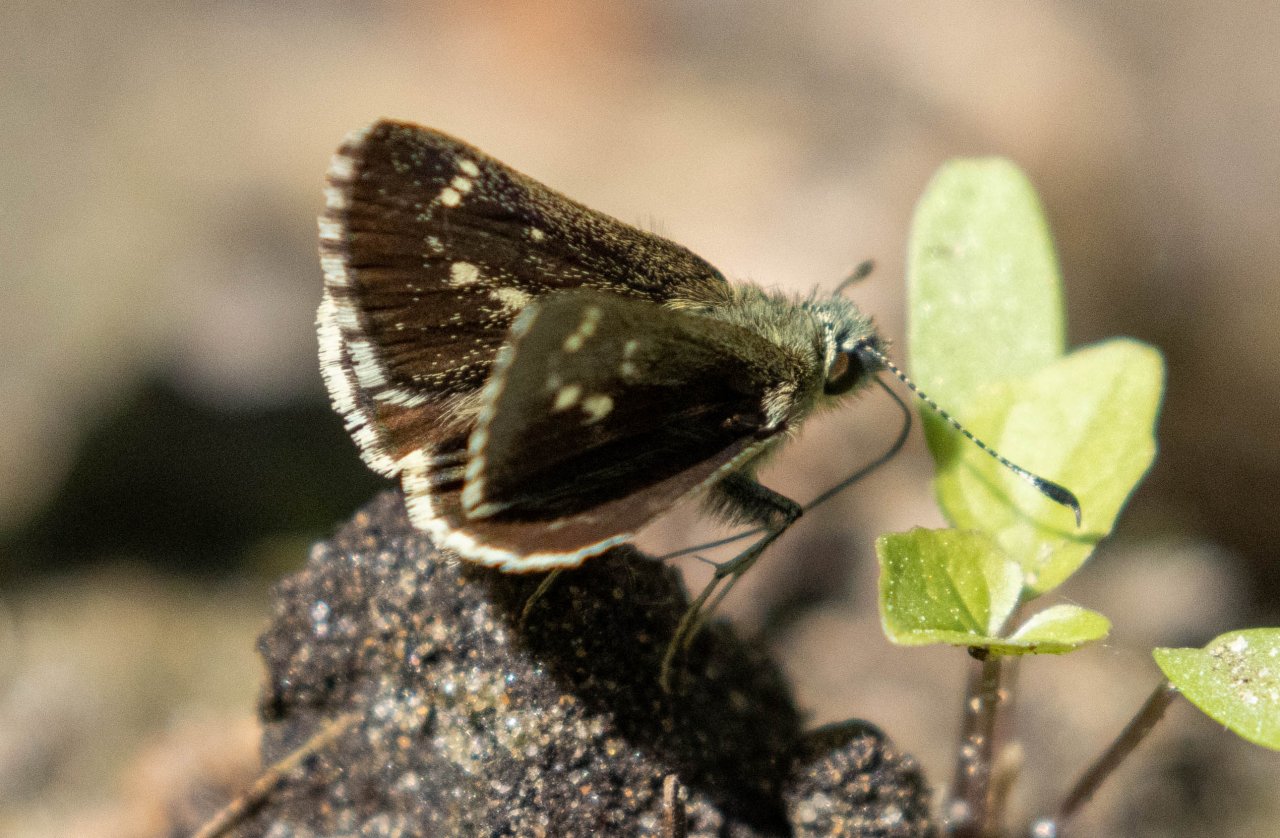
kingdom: Animalia
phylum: Arthropoda
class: Insecta
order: Lepidoptera
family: Hesperiidae
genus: Mastor
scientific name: Mastor hegon
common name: Pepper and Salt Skipper
